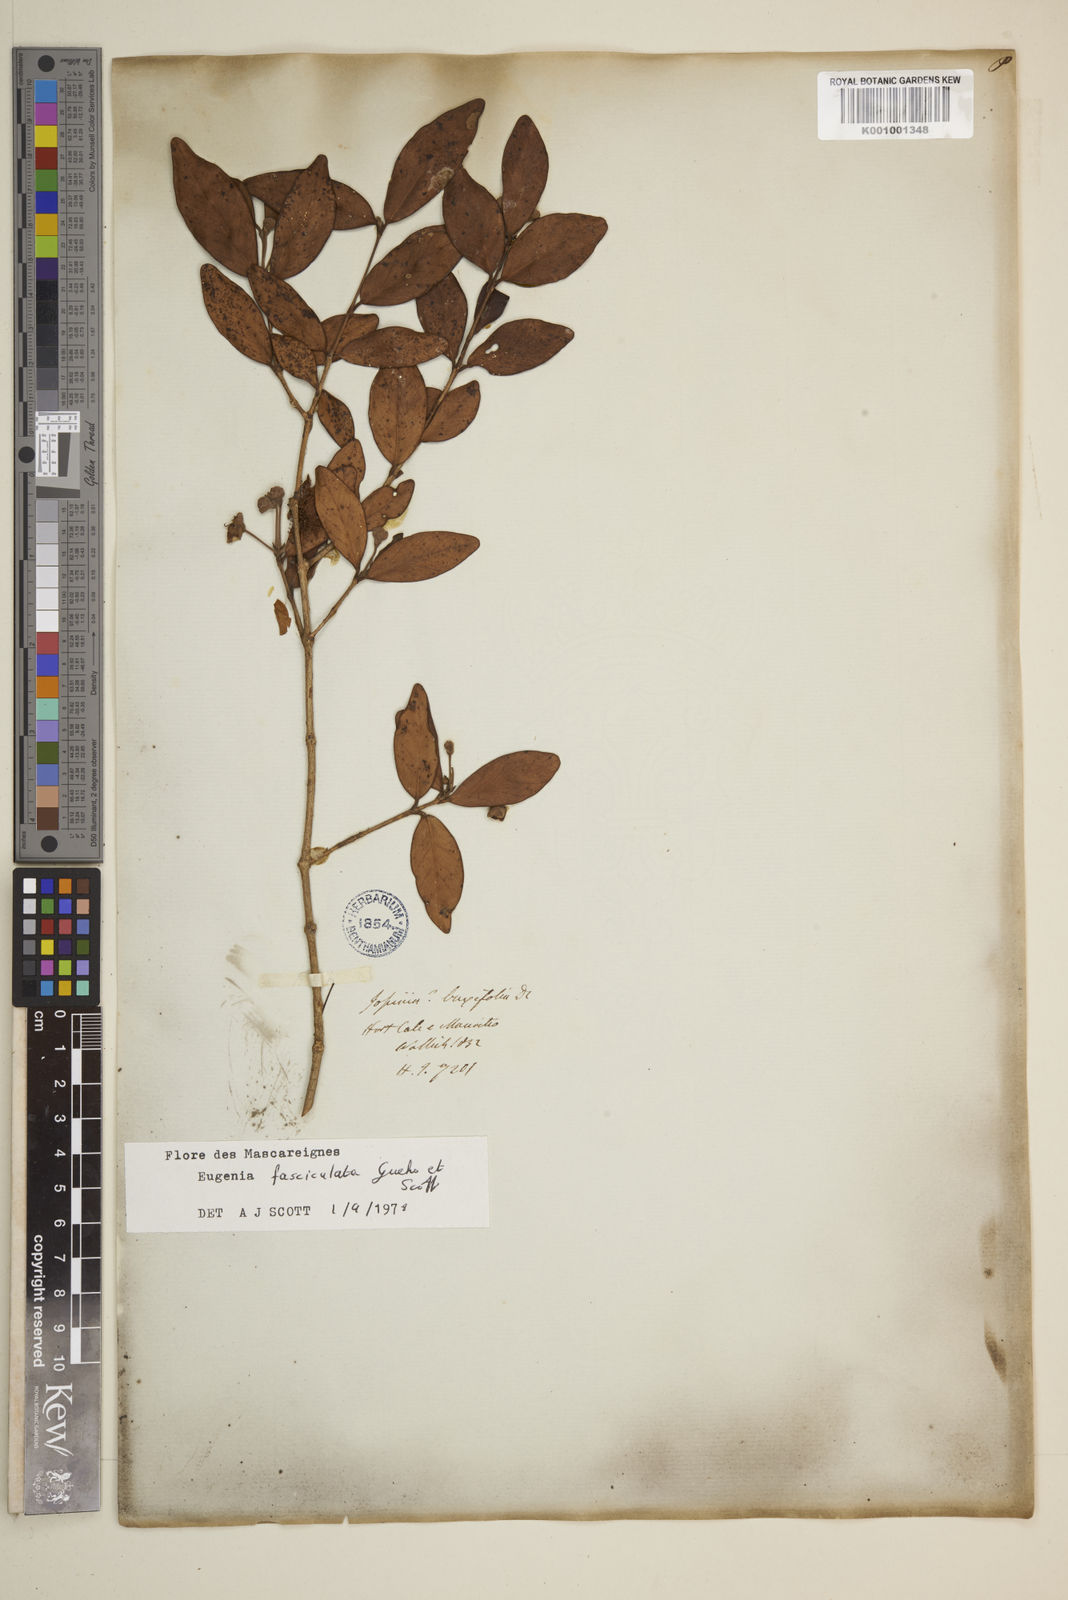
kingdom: Plantae
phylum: Tracheophyta
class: Magnoliopsida
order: Myrtales
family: Myrtaceae
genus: Eugenia
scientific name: Eugenia roxburghii
